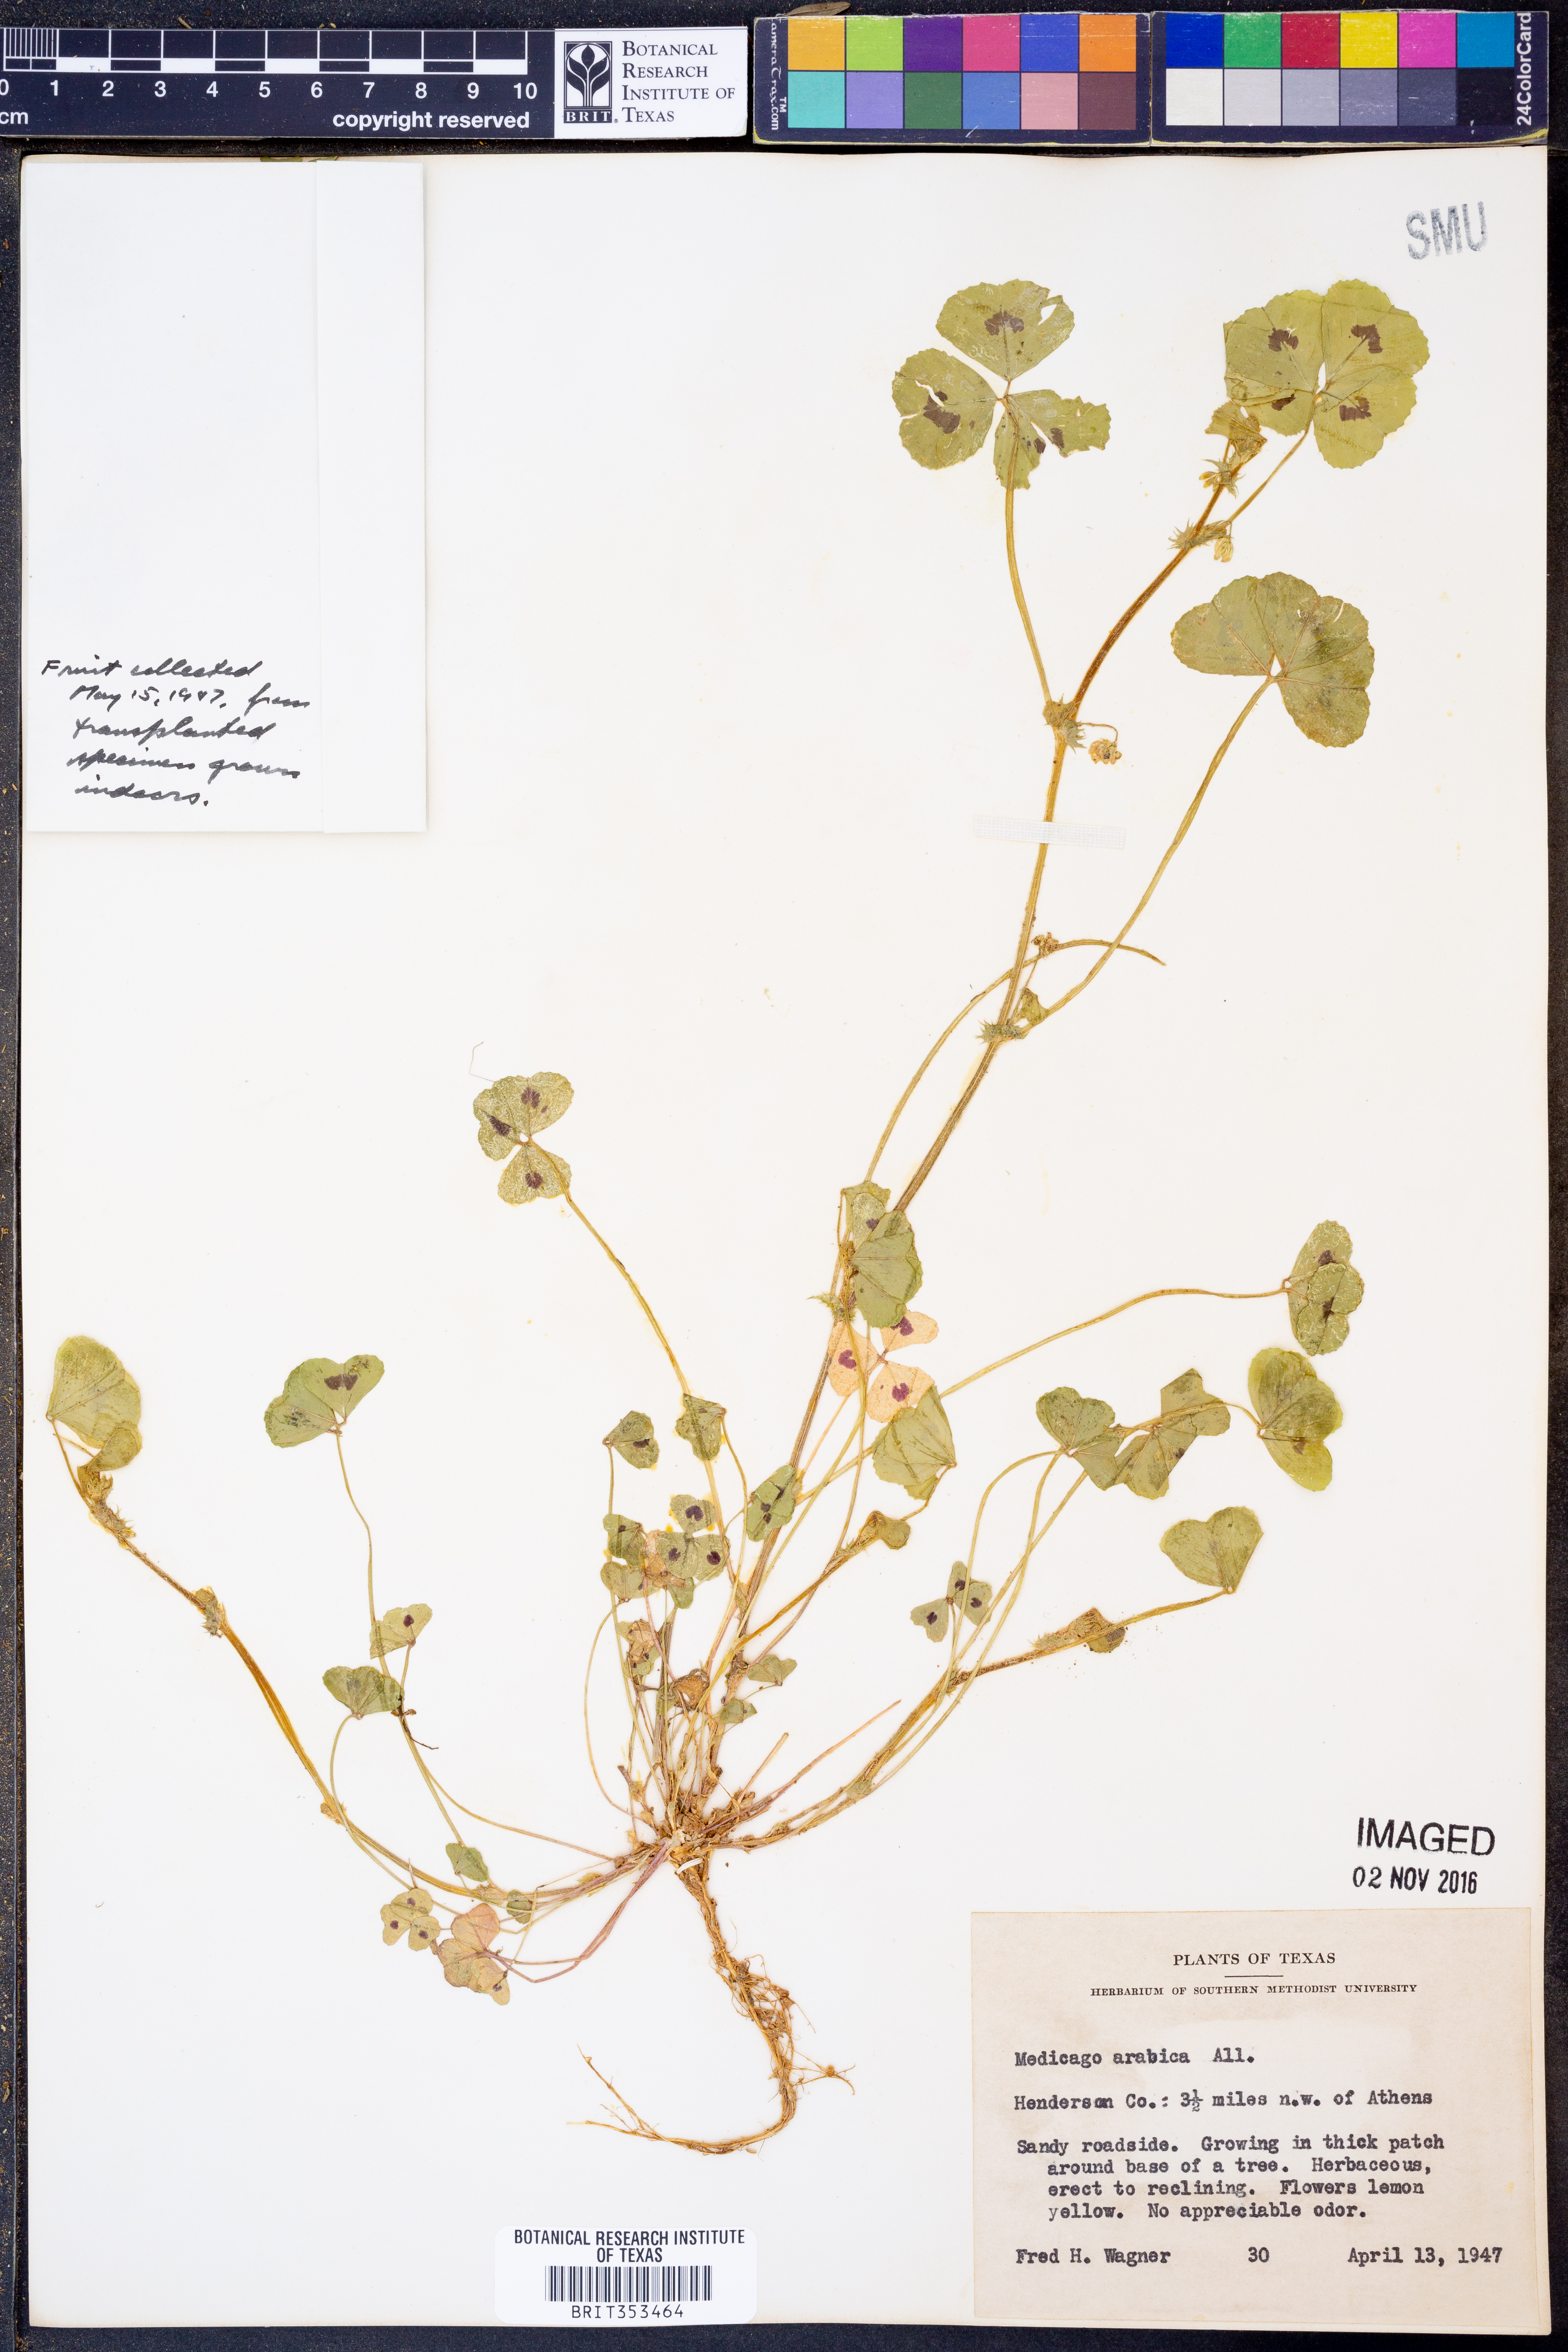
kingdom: Plantae
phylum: Tracheophyta
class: Magnoliopsida
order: Fabales
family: Fabaceae
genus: Medicago
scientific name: Medicago arabica
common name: Spotted medick
